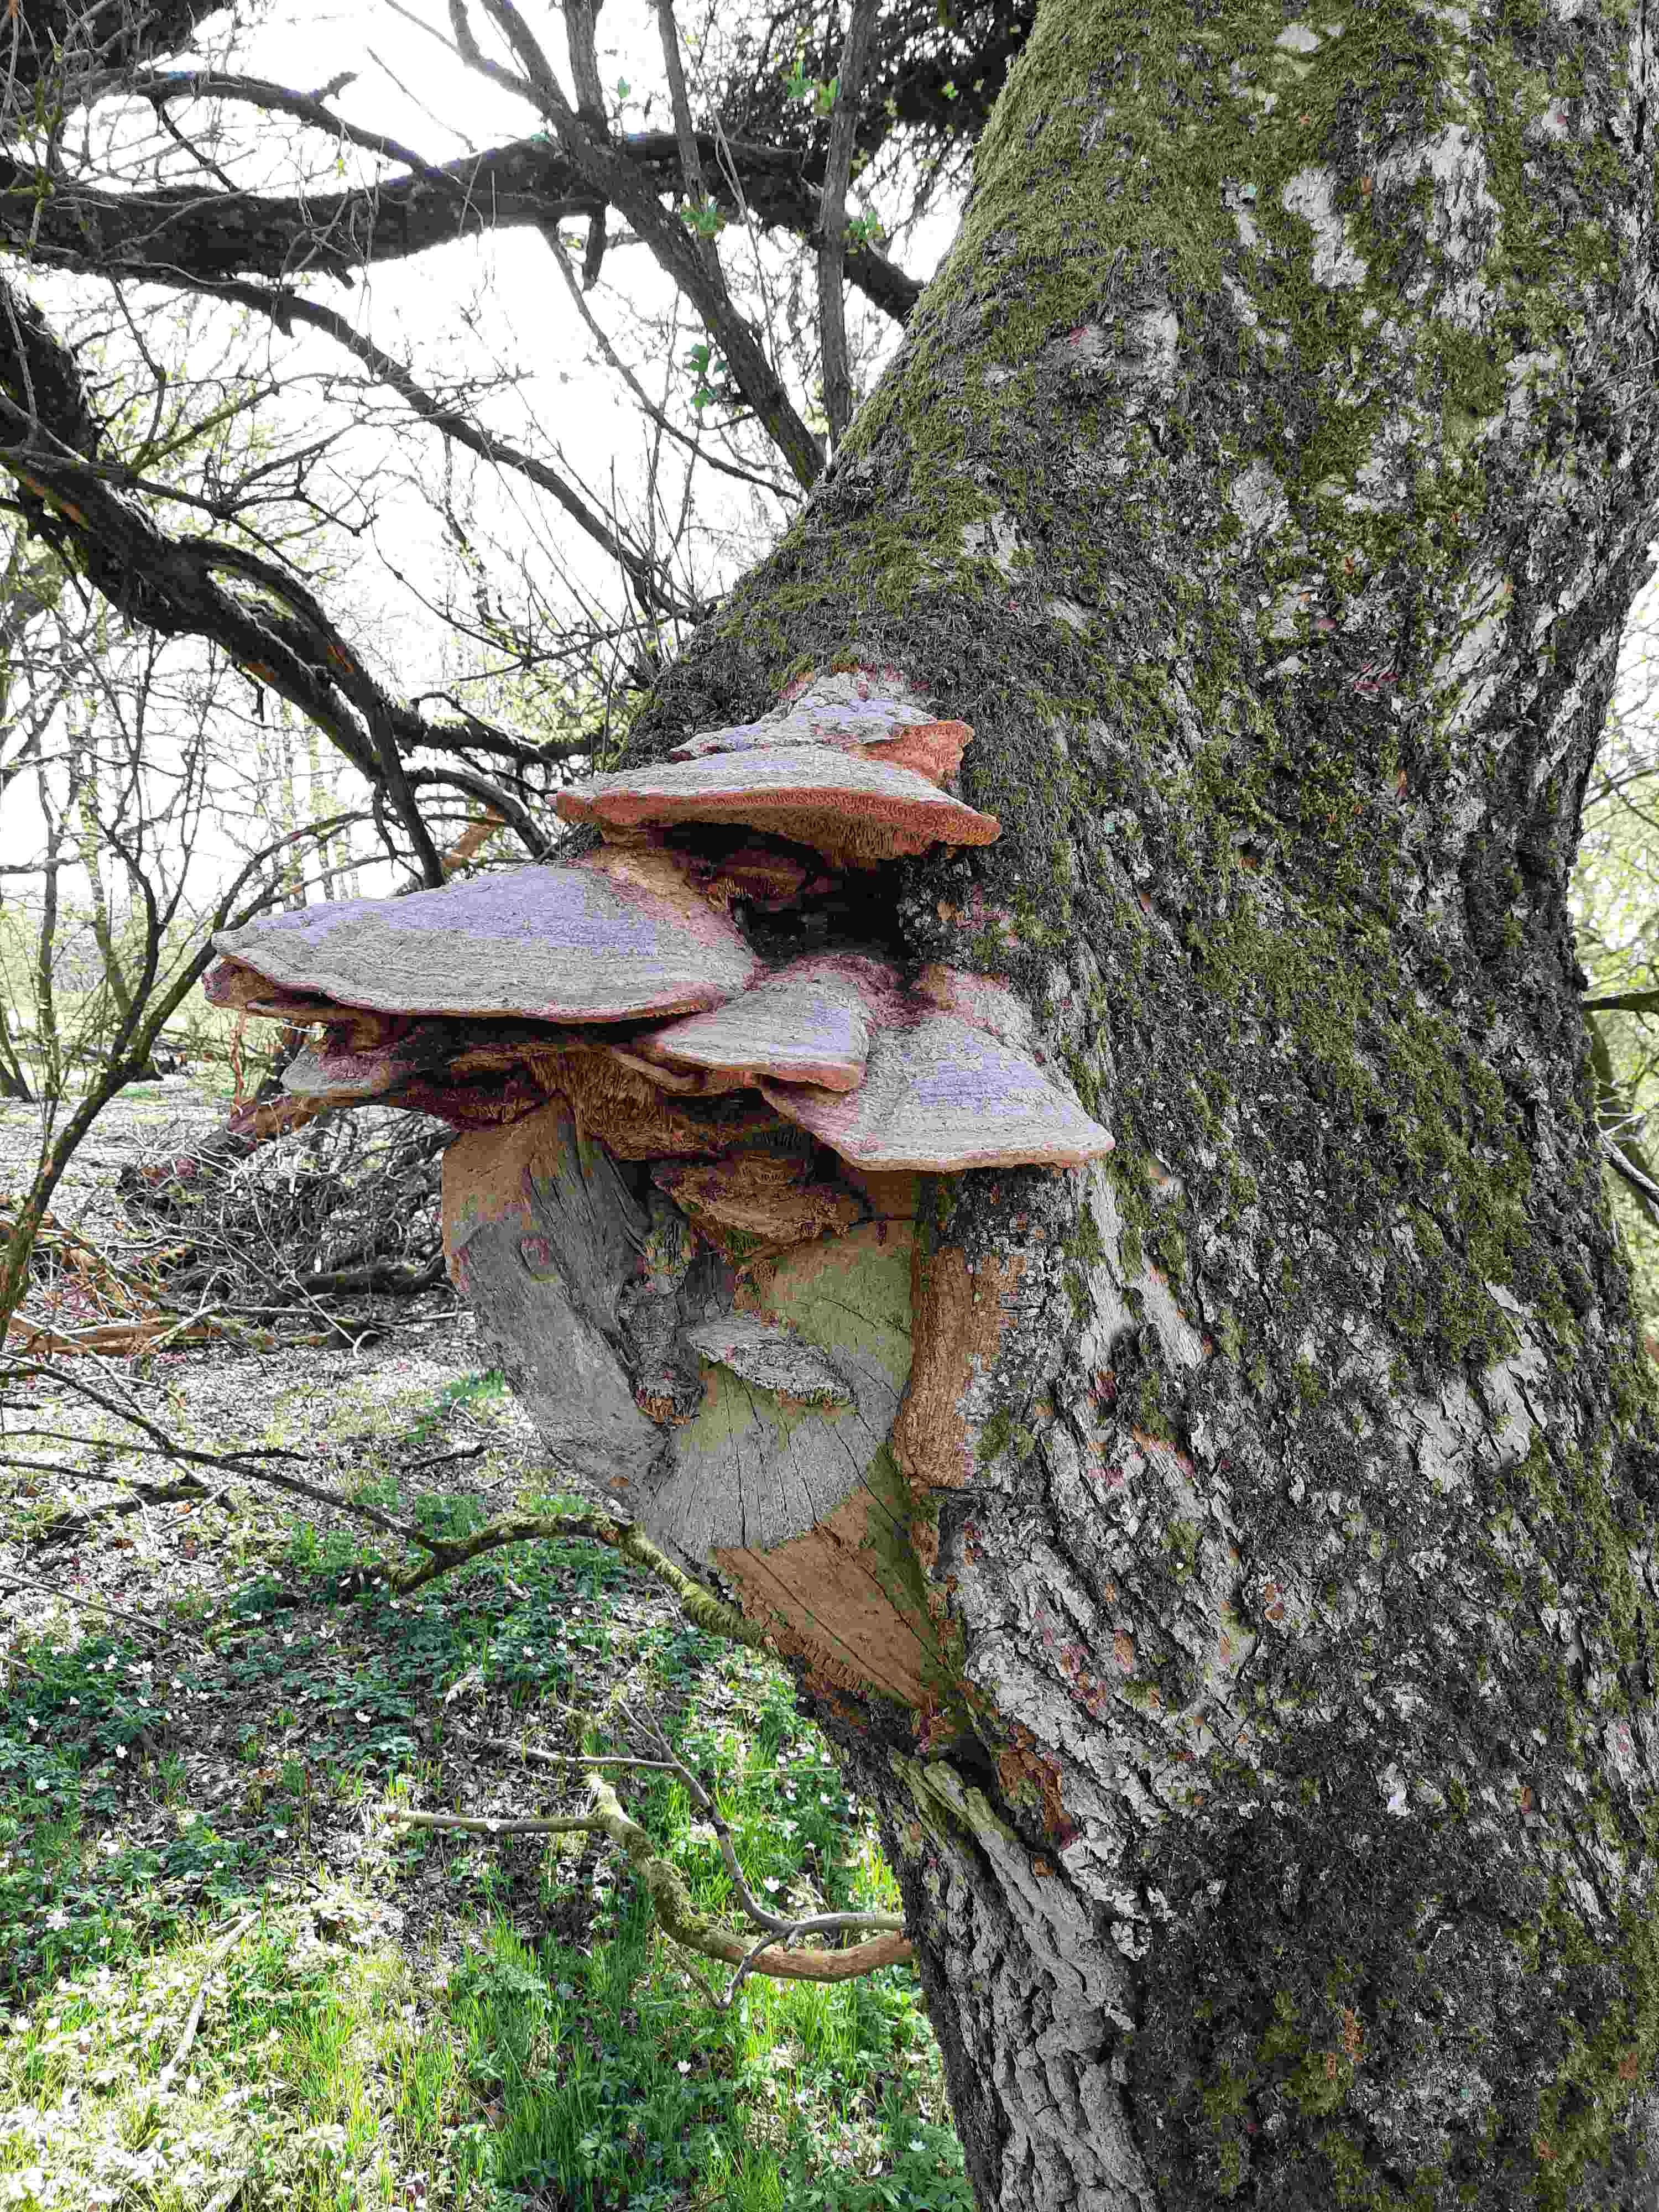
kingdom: Fungi
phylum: Basidiomycota
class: Agaricomycetes
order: Polyporales
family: Fomitopsidaceae
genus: Daedalea
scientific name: Daedalea quercina
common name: ege-labyrintsvamp
